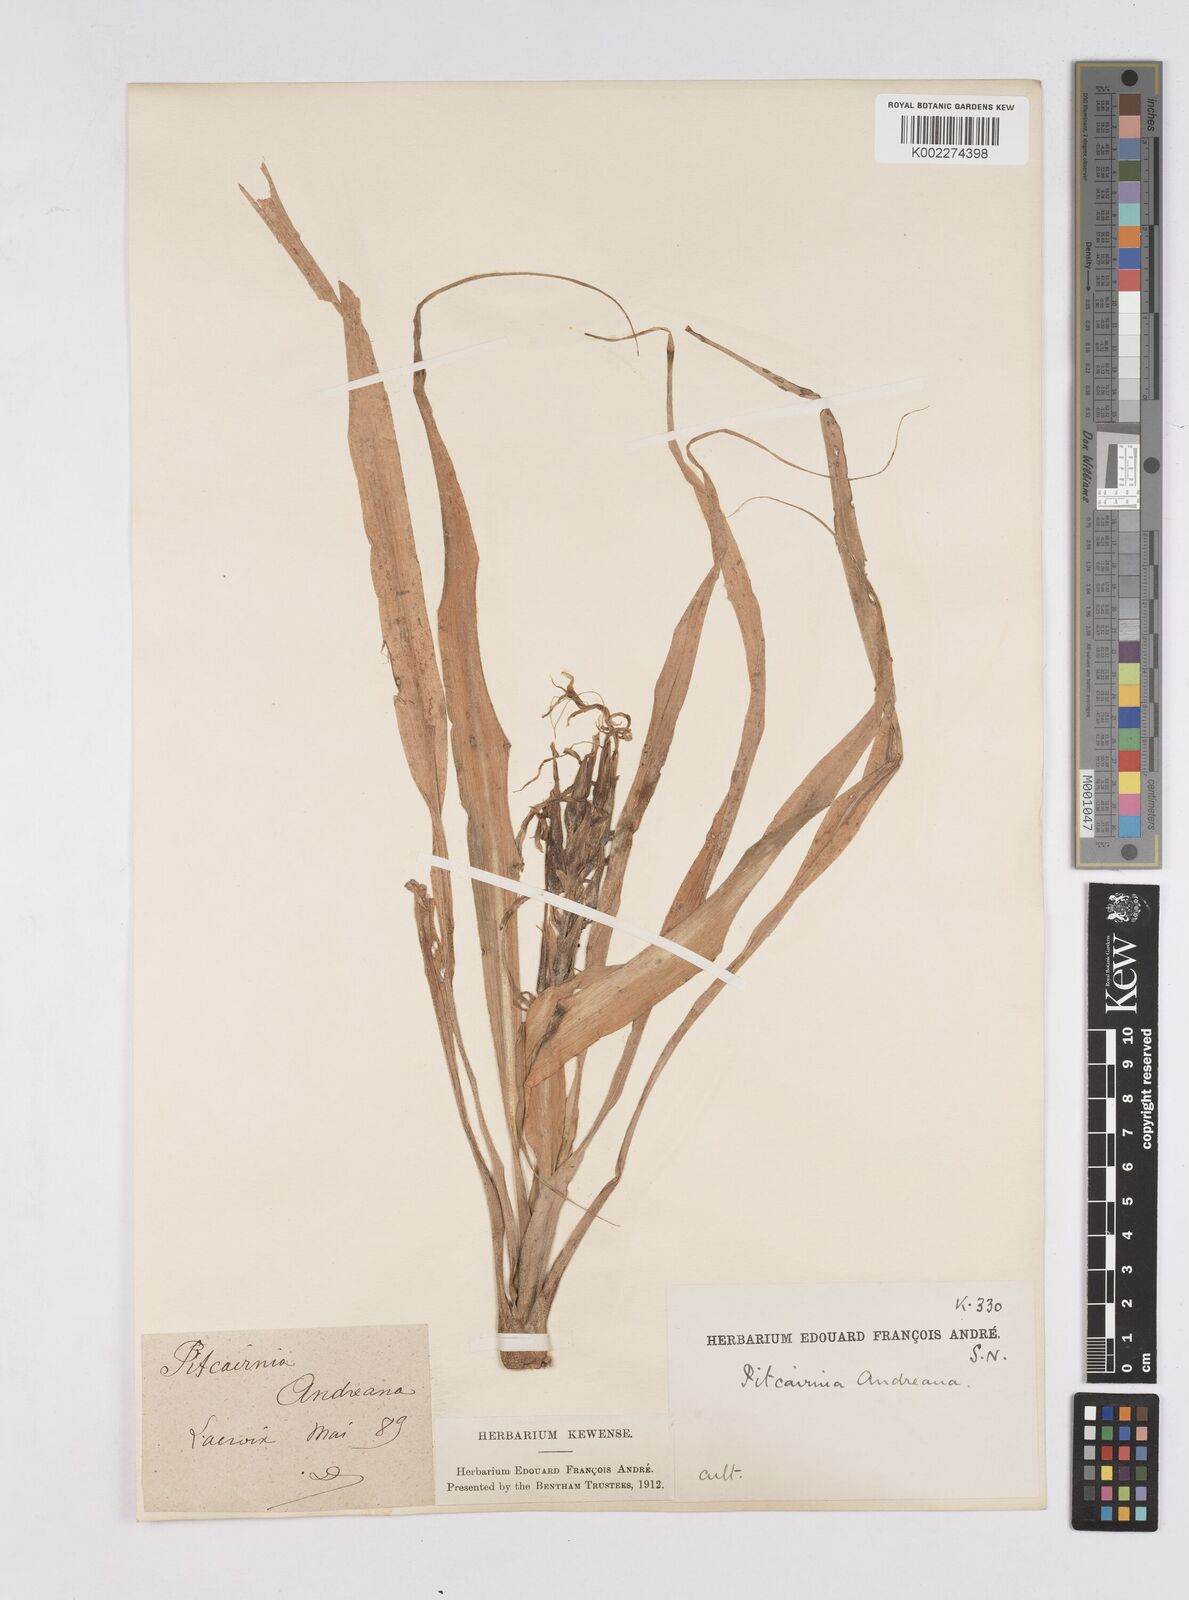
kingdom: Plantae
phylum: Tracheophyta
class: Liliopsida
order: Poales
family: Bromeliaceae
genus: Pitcairnia
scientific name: Pitcairnia andreana
